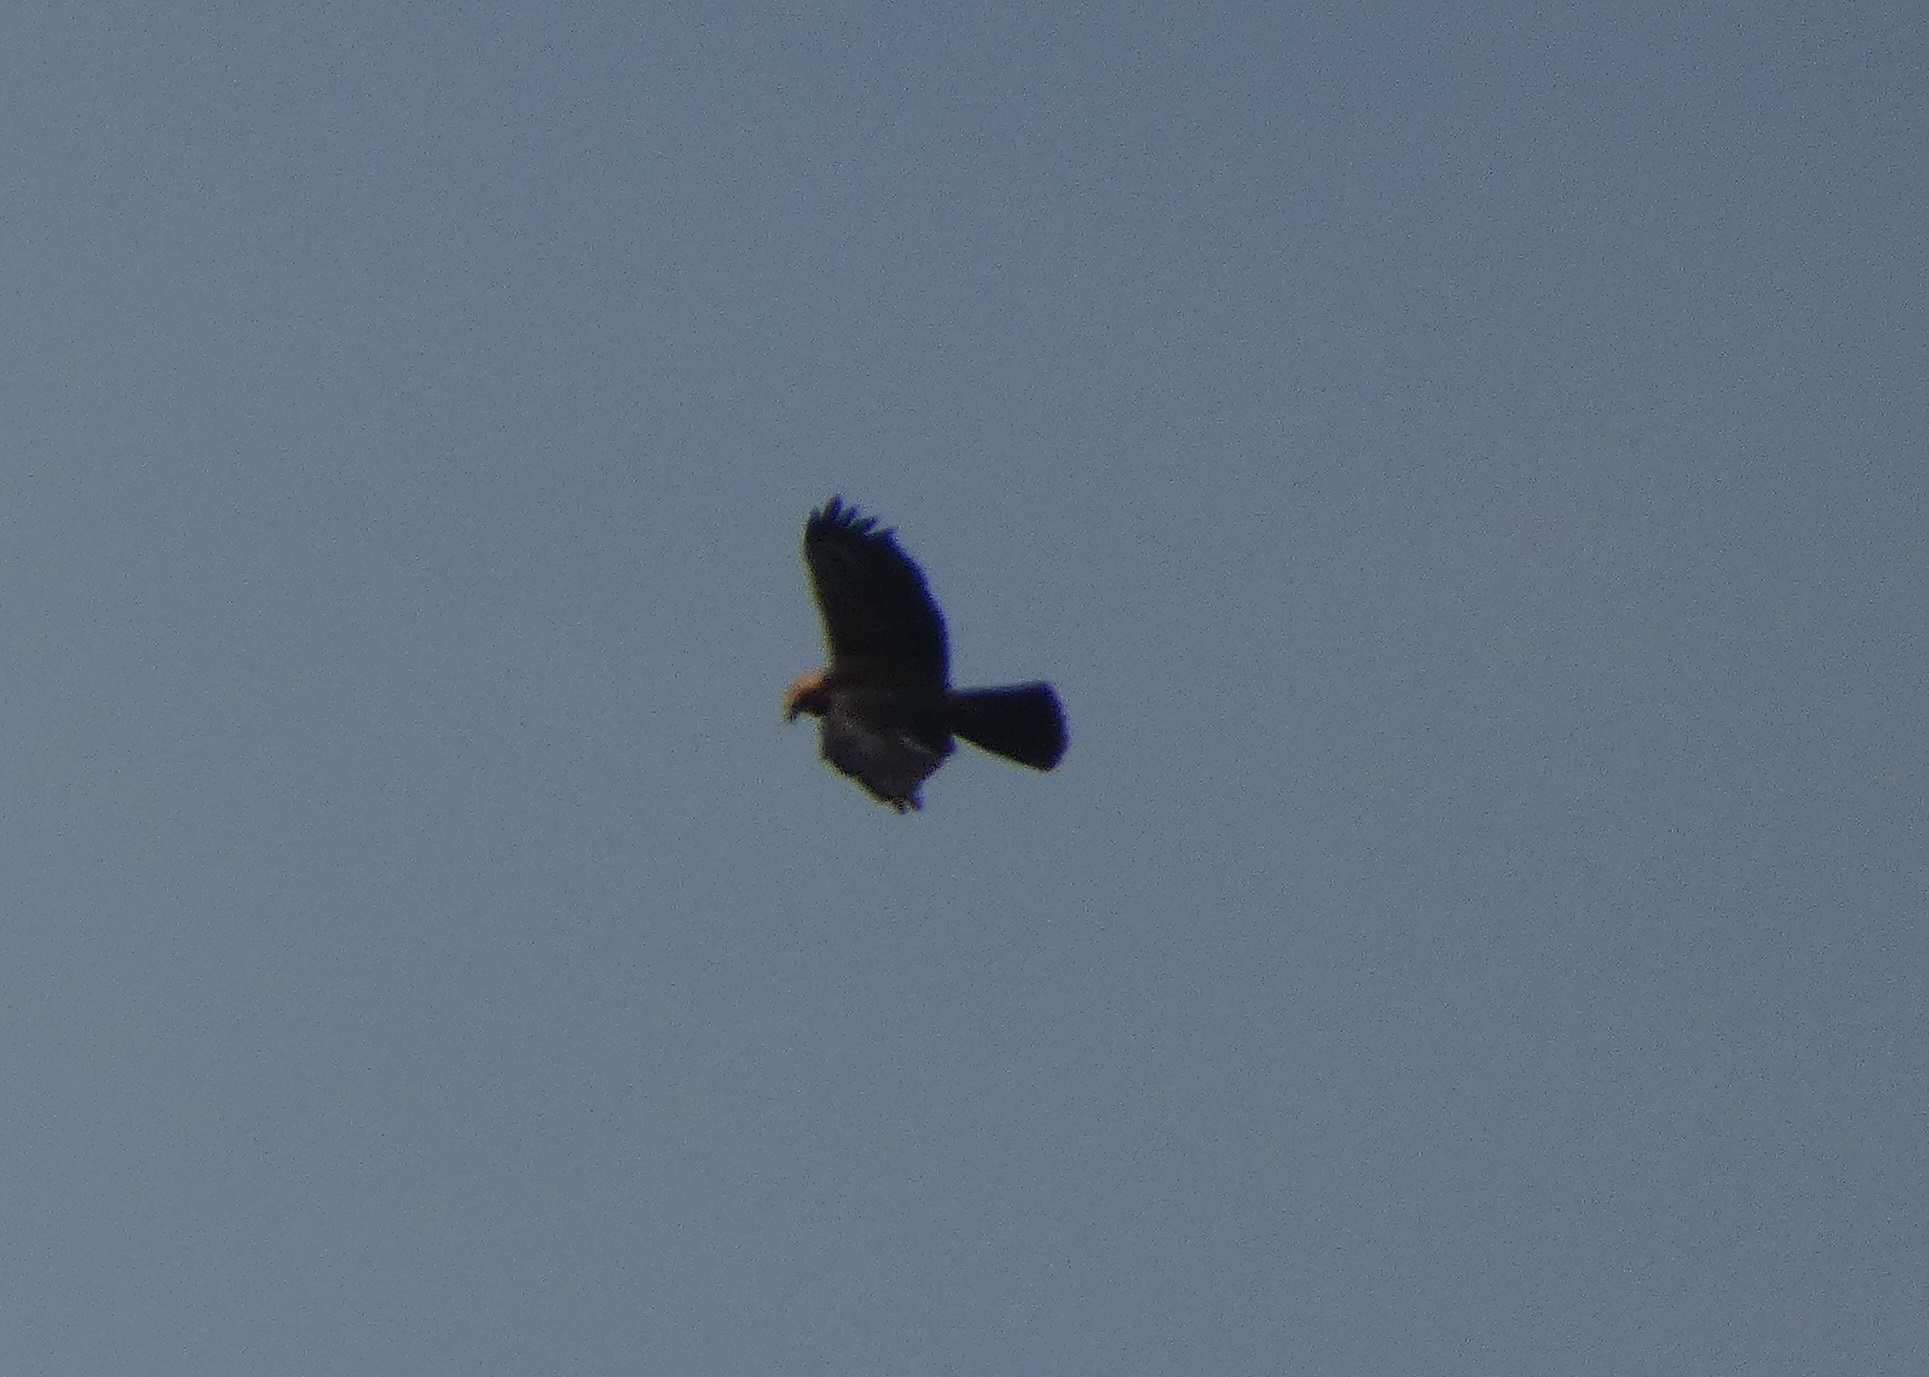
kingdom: Animalia
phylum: Chordata
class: Aves
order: Accipitriformes
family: Accipitridae
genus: Circus
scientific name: Circus aeruginosus
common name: Rørhøg
